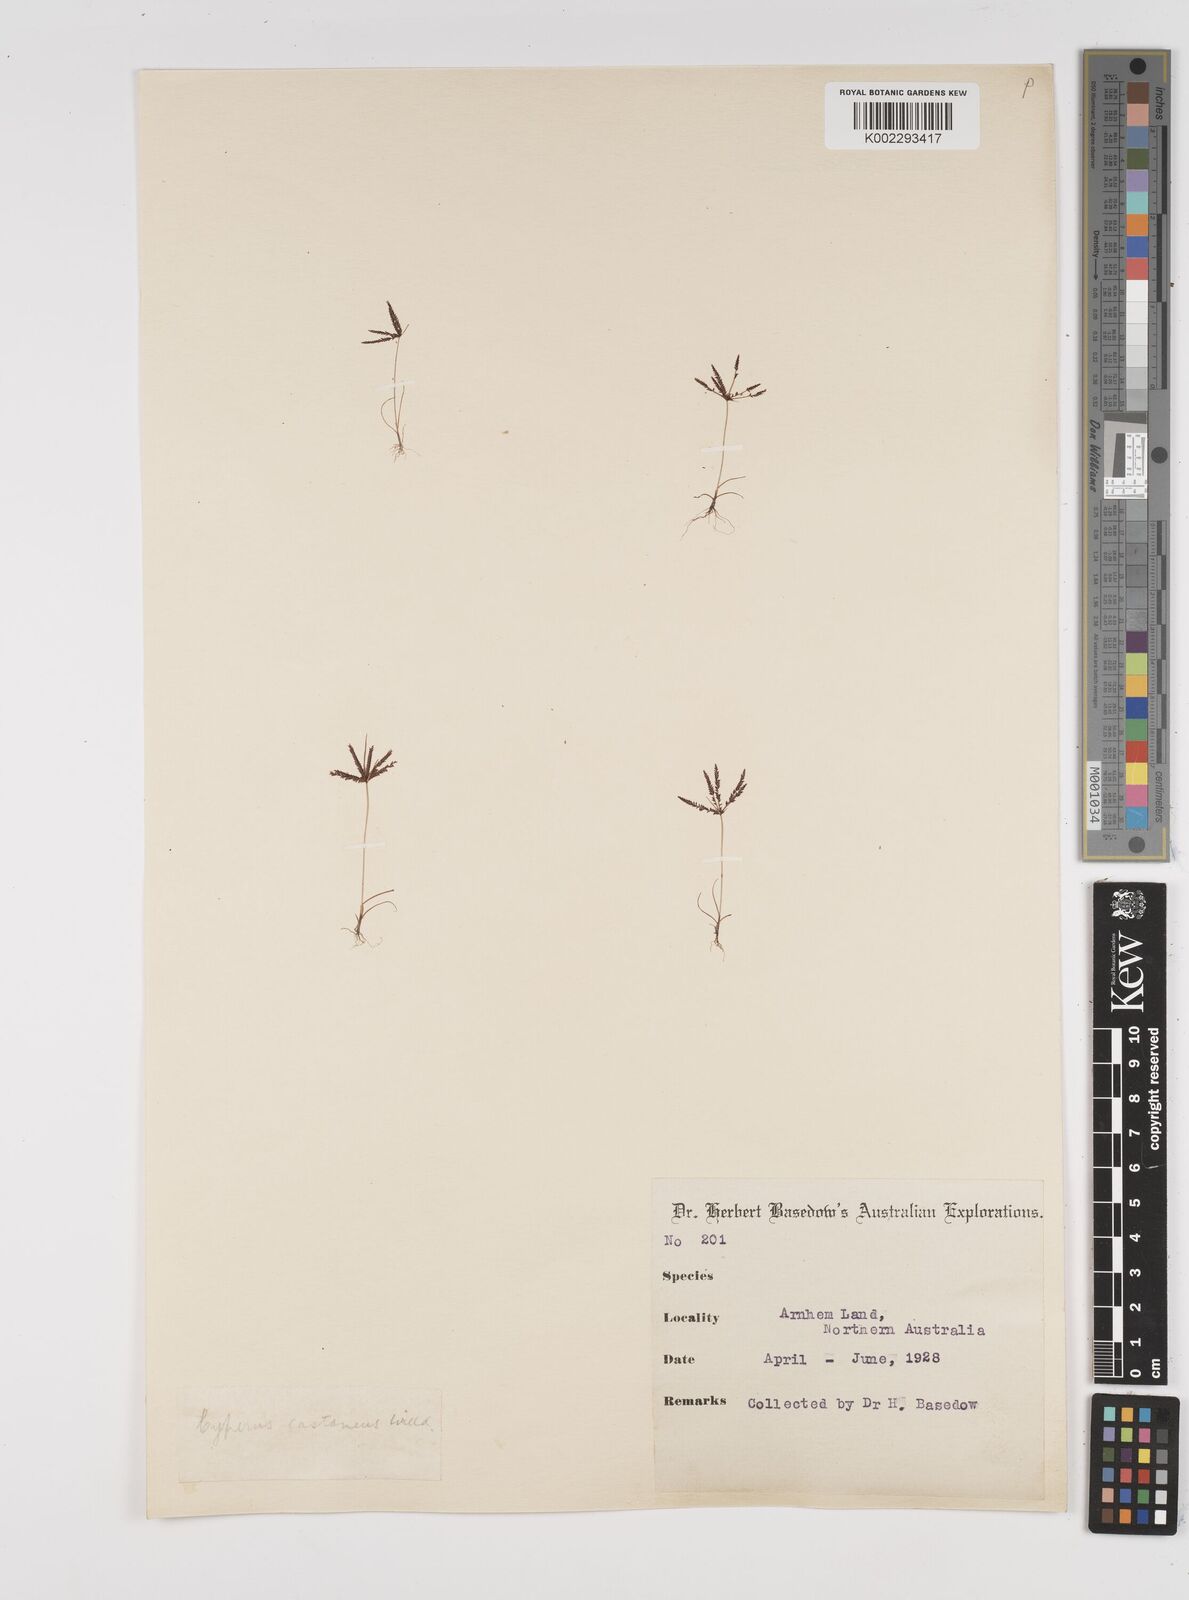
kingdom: Plantae
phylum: Tracheophyta
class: Liliopsida
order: Poales
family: Cyperaceae
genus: Cyperus
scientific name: Cyperus castaneus
